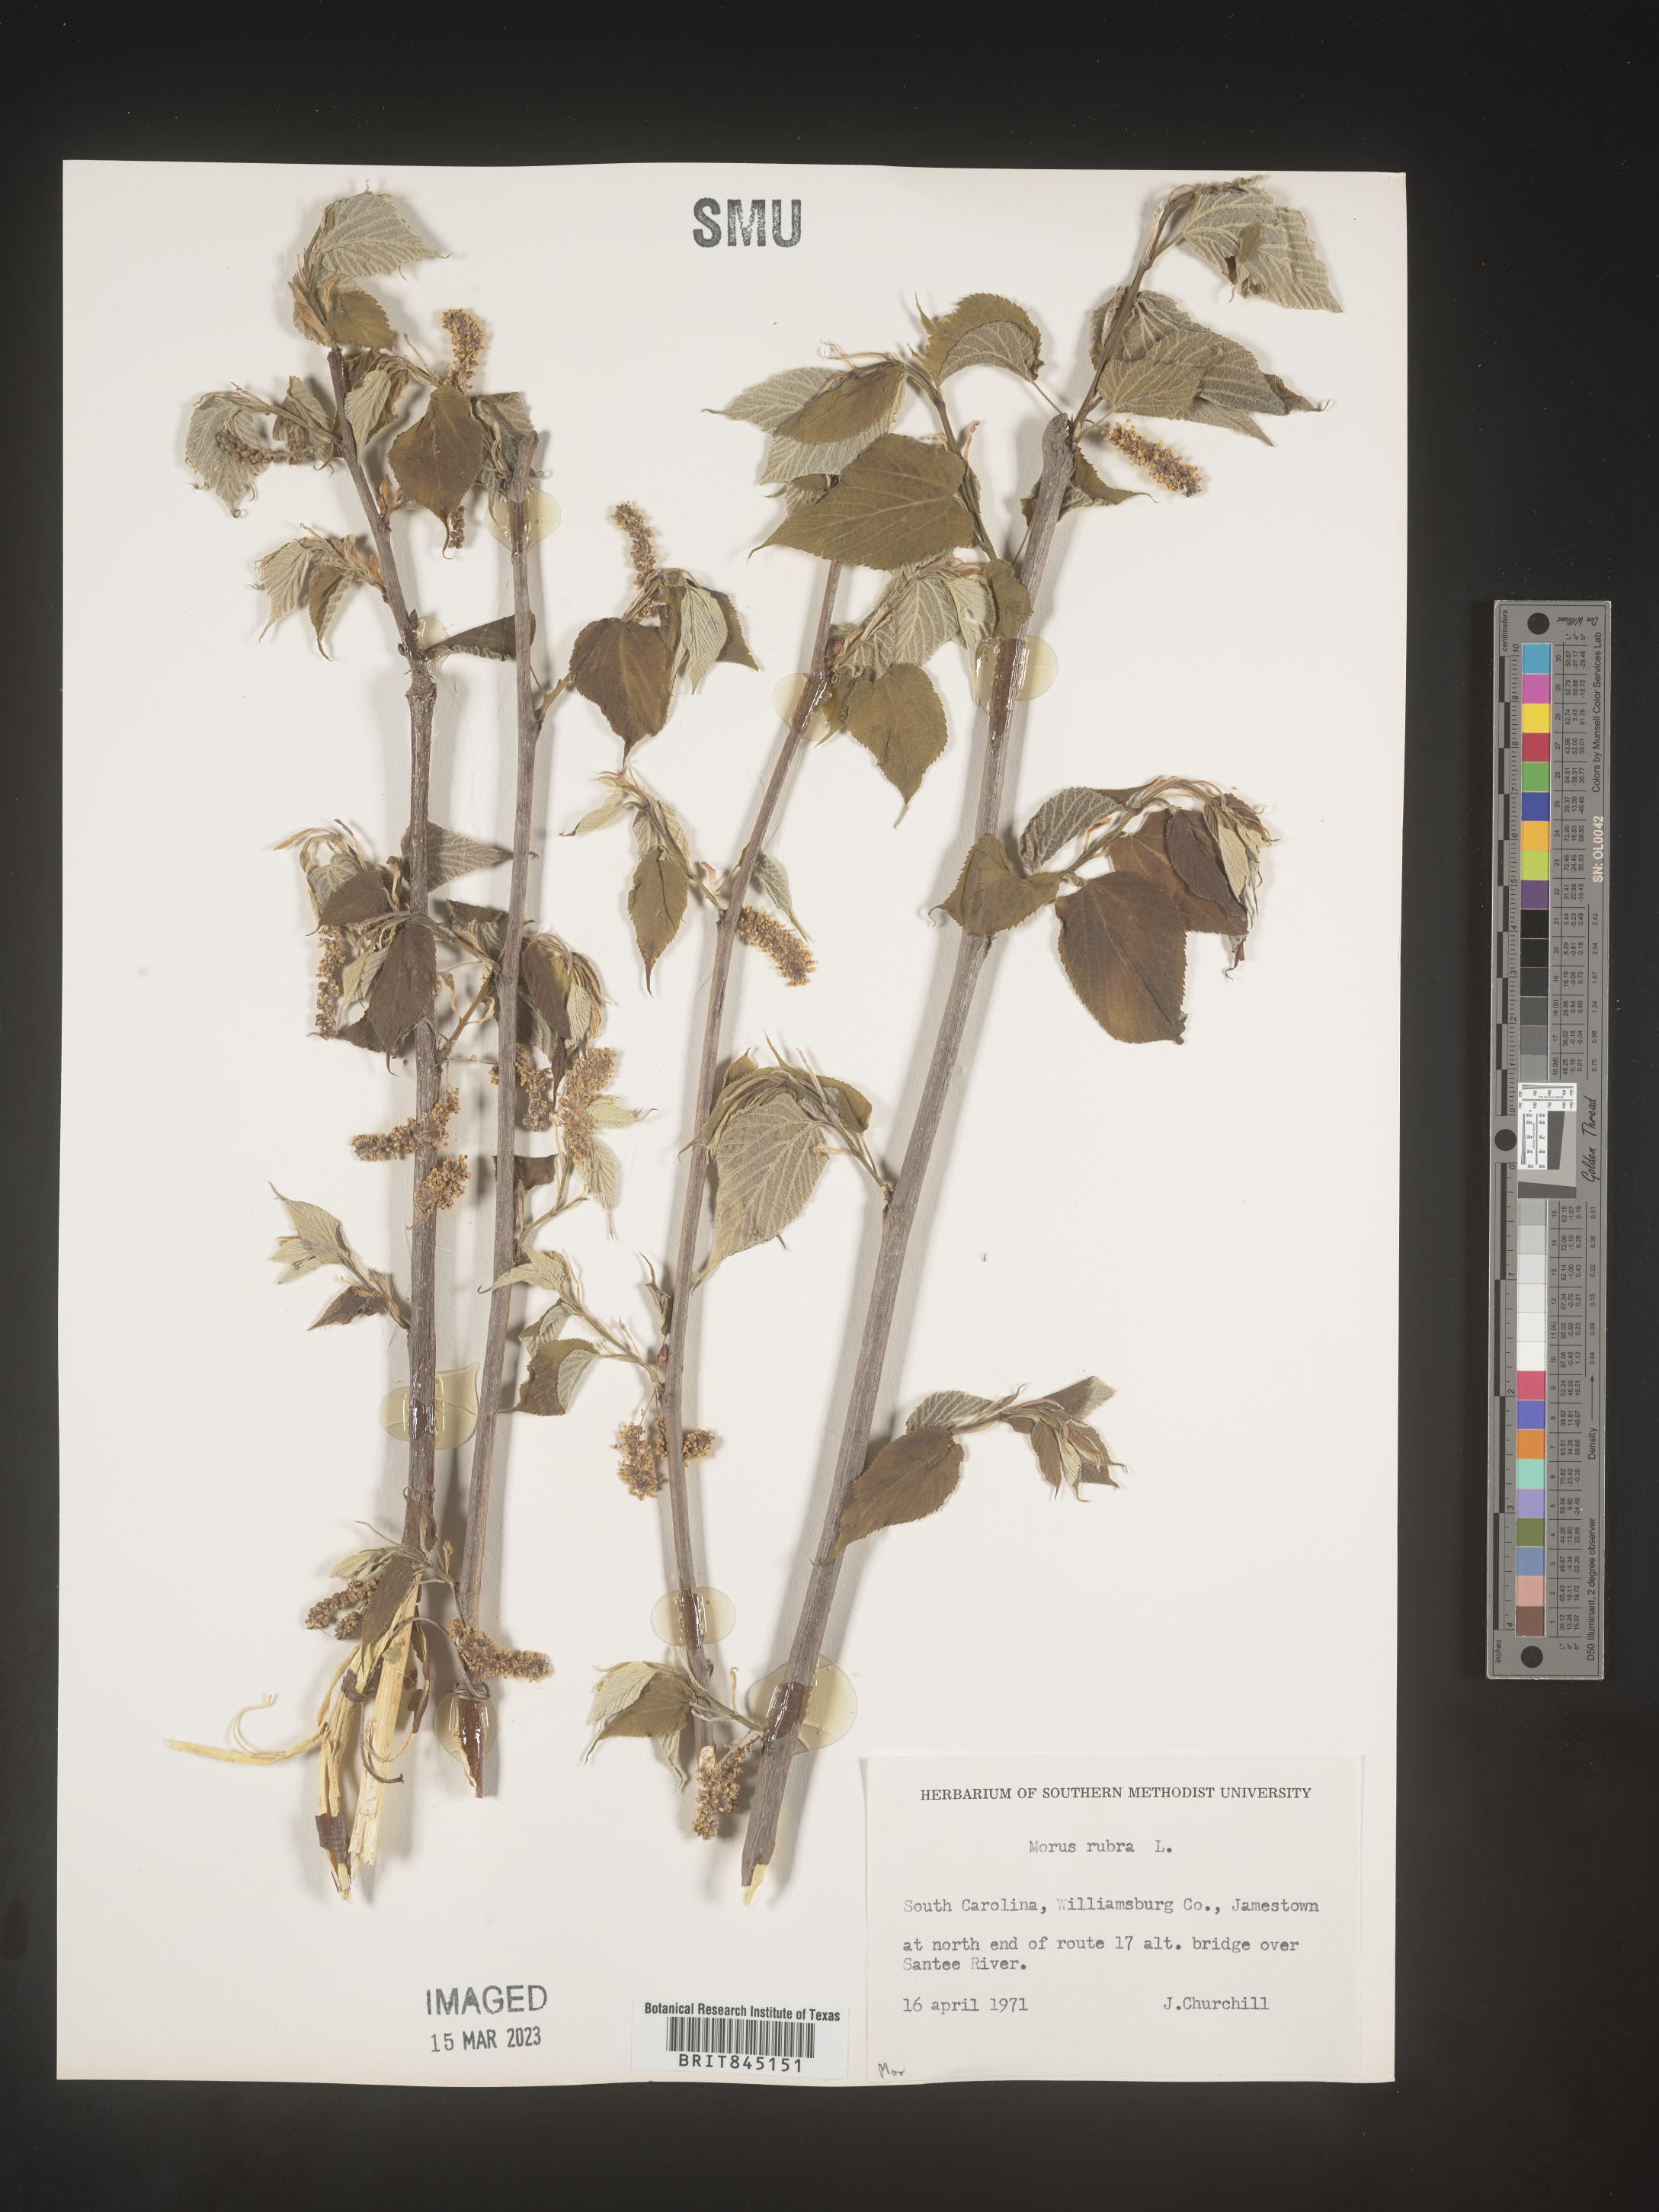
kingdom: Plantae
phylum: Tracheophyta
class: Magnoliopsida
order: Rosales
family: Moraceae
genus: Morus
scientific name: Morus rubra
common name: Red mulberry
